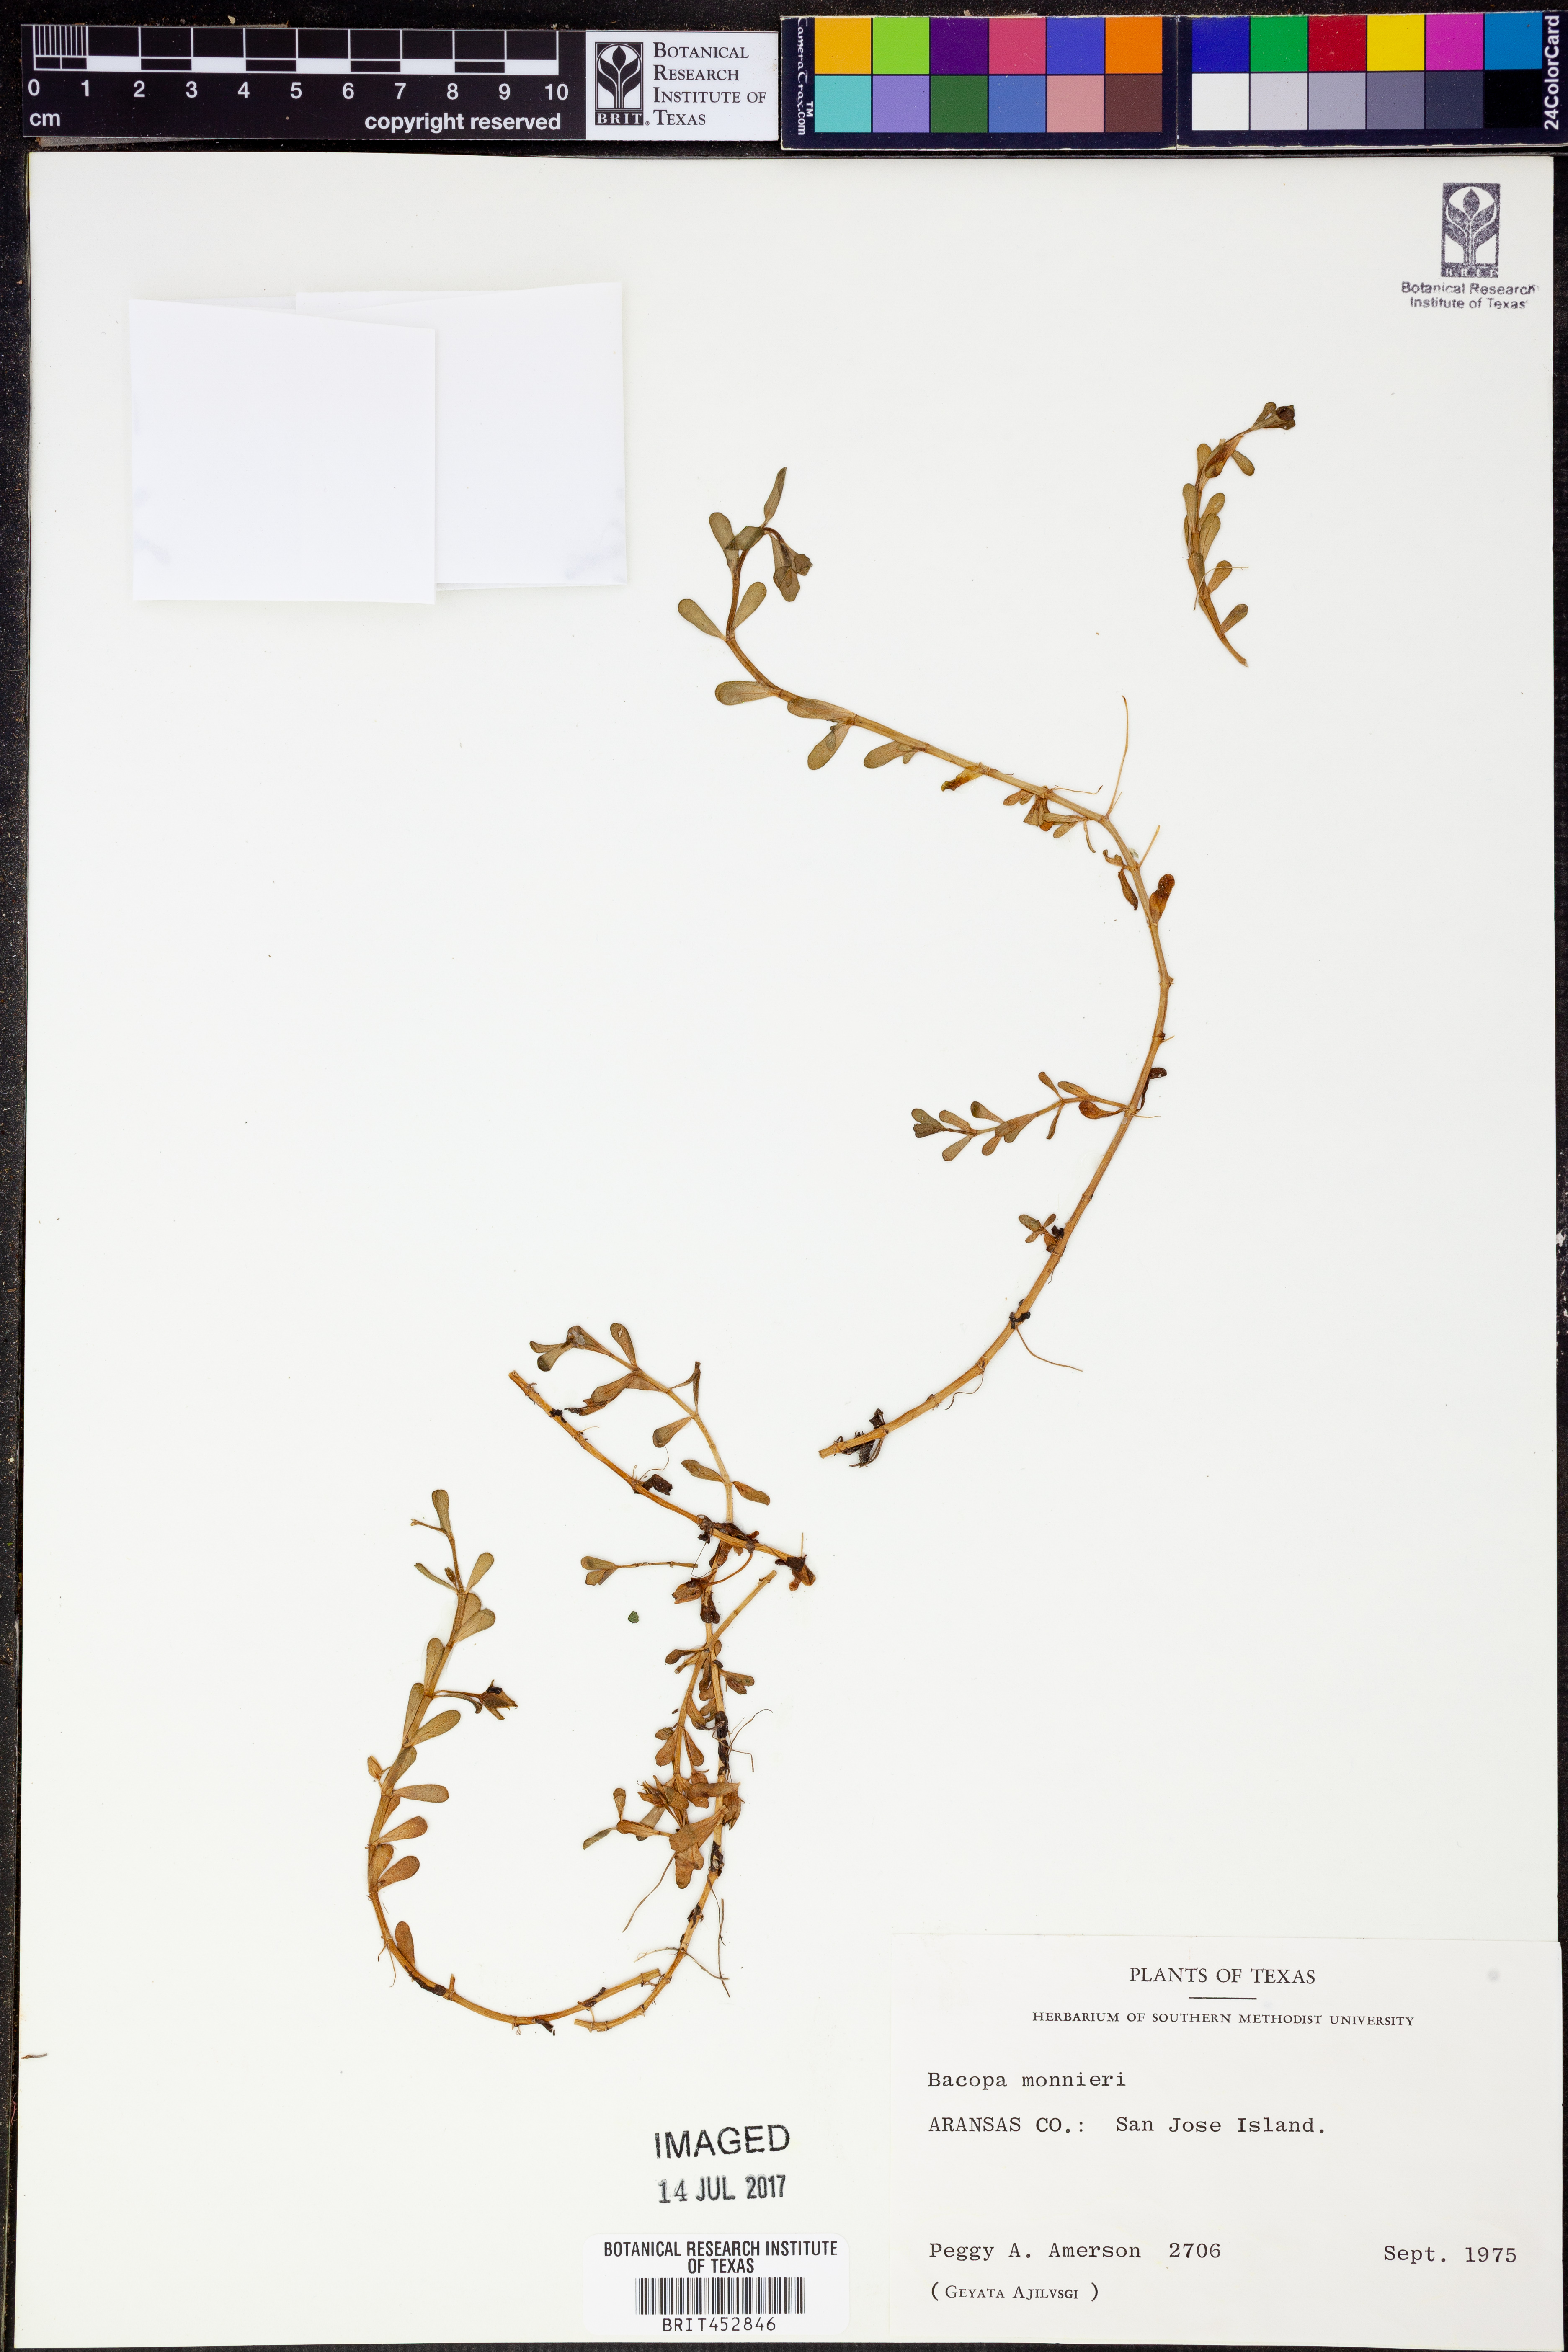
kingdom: Plantae
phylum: Tracheophyta
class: Magnoliopsida
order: Lamiales
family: Plantaginaceae
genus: Bacopa
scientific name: Bacopa monnieri
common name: Indian-pennywort
